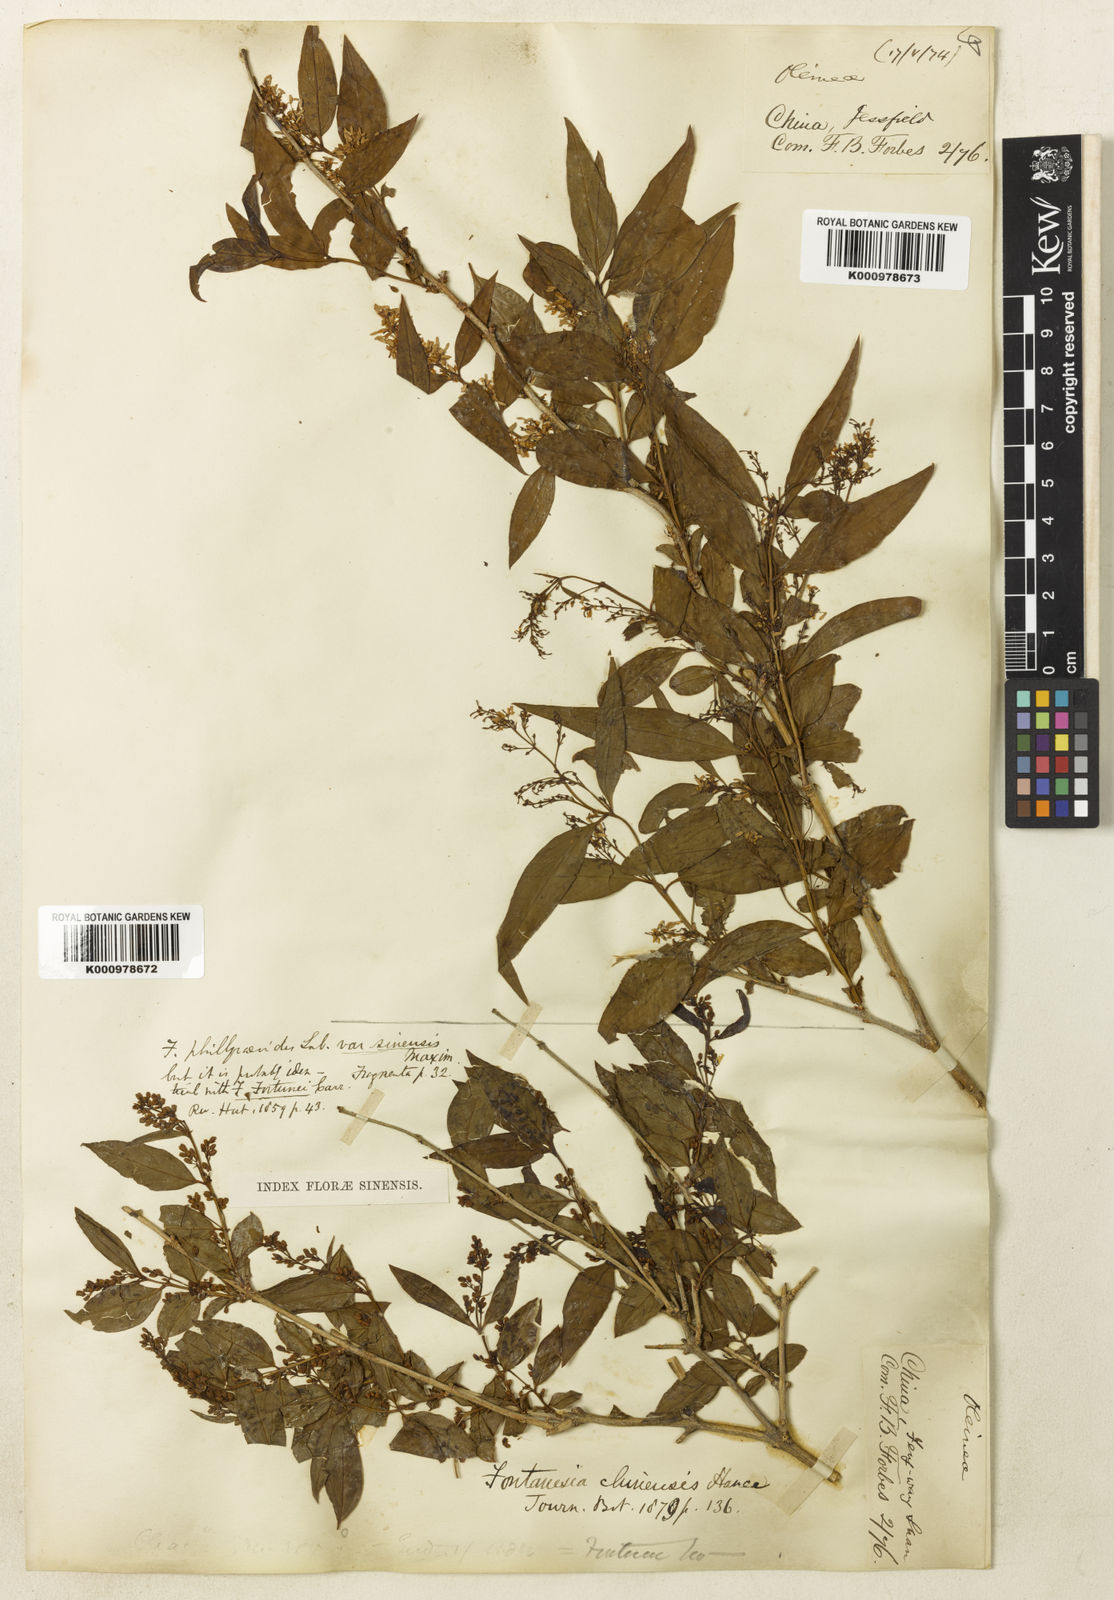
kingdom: Plantae
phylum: Tracheophyta
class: Magnoliopsida
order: Lamiales
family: Oleaceae
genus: Fontanesia
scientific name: Fontanesia fortunei
